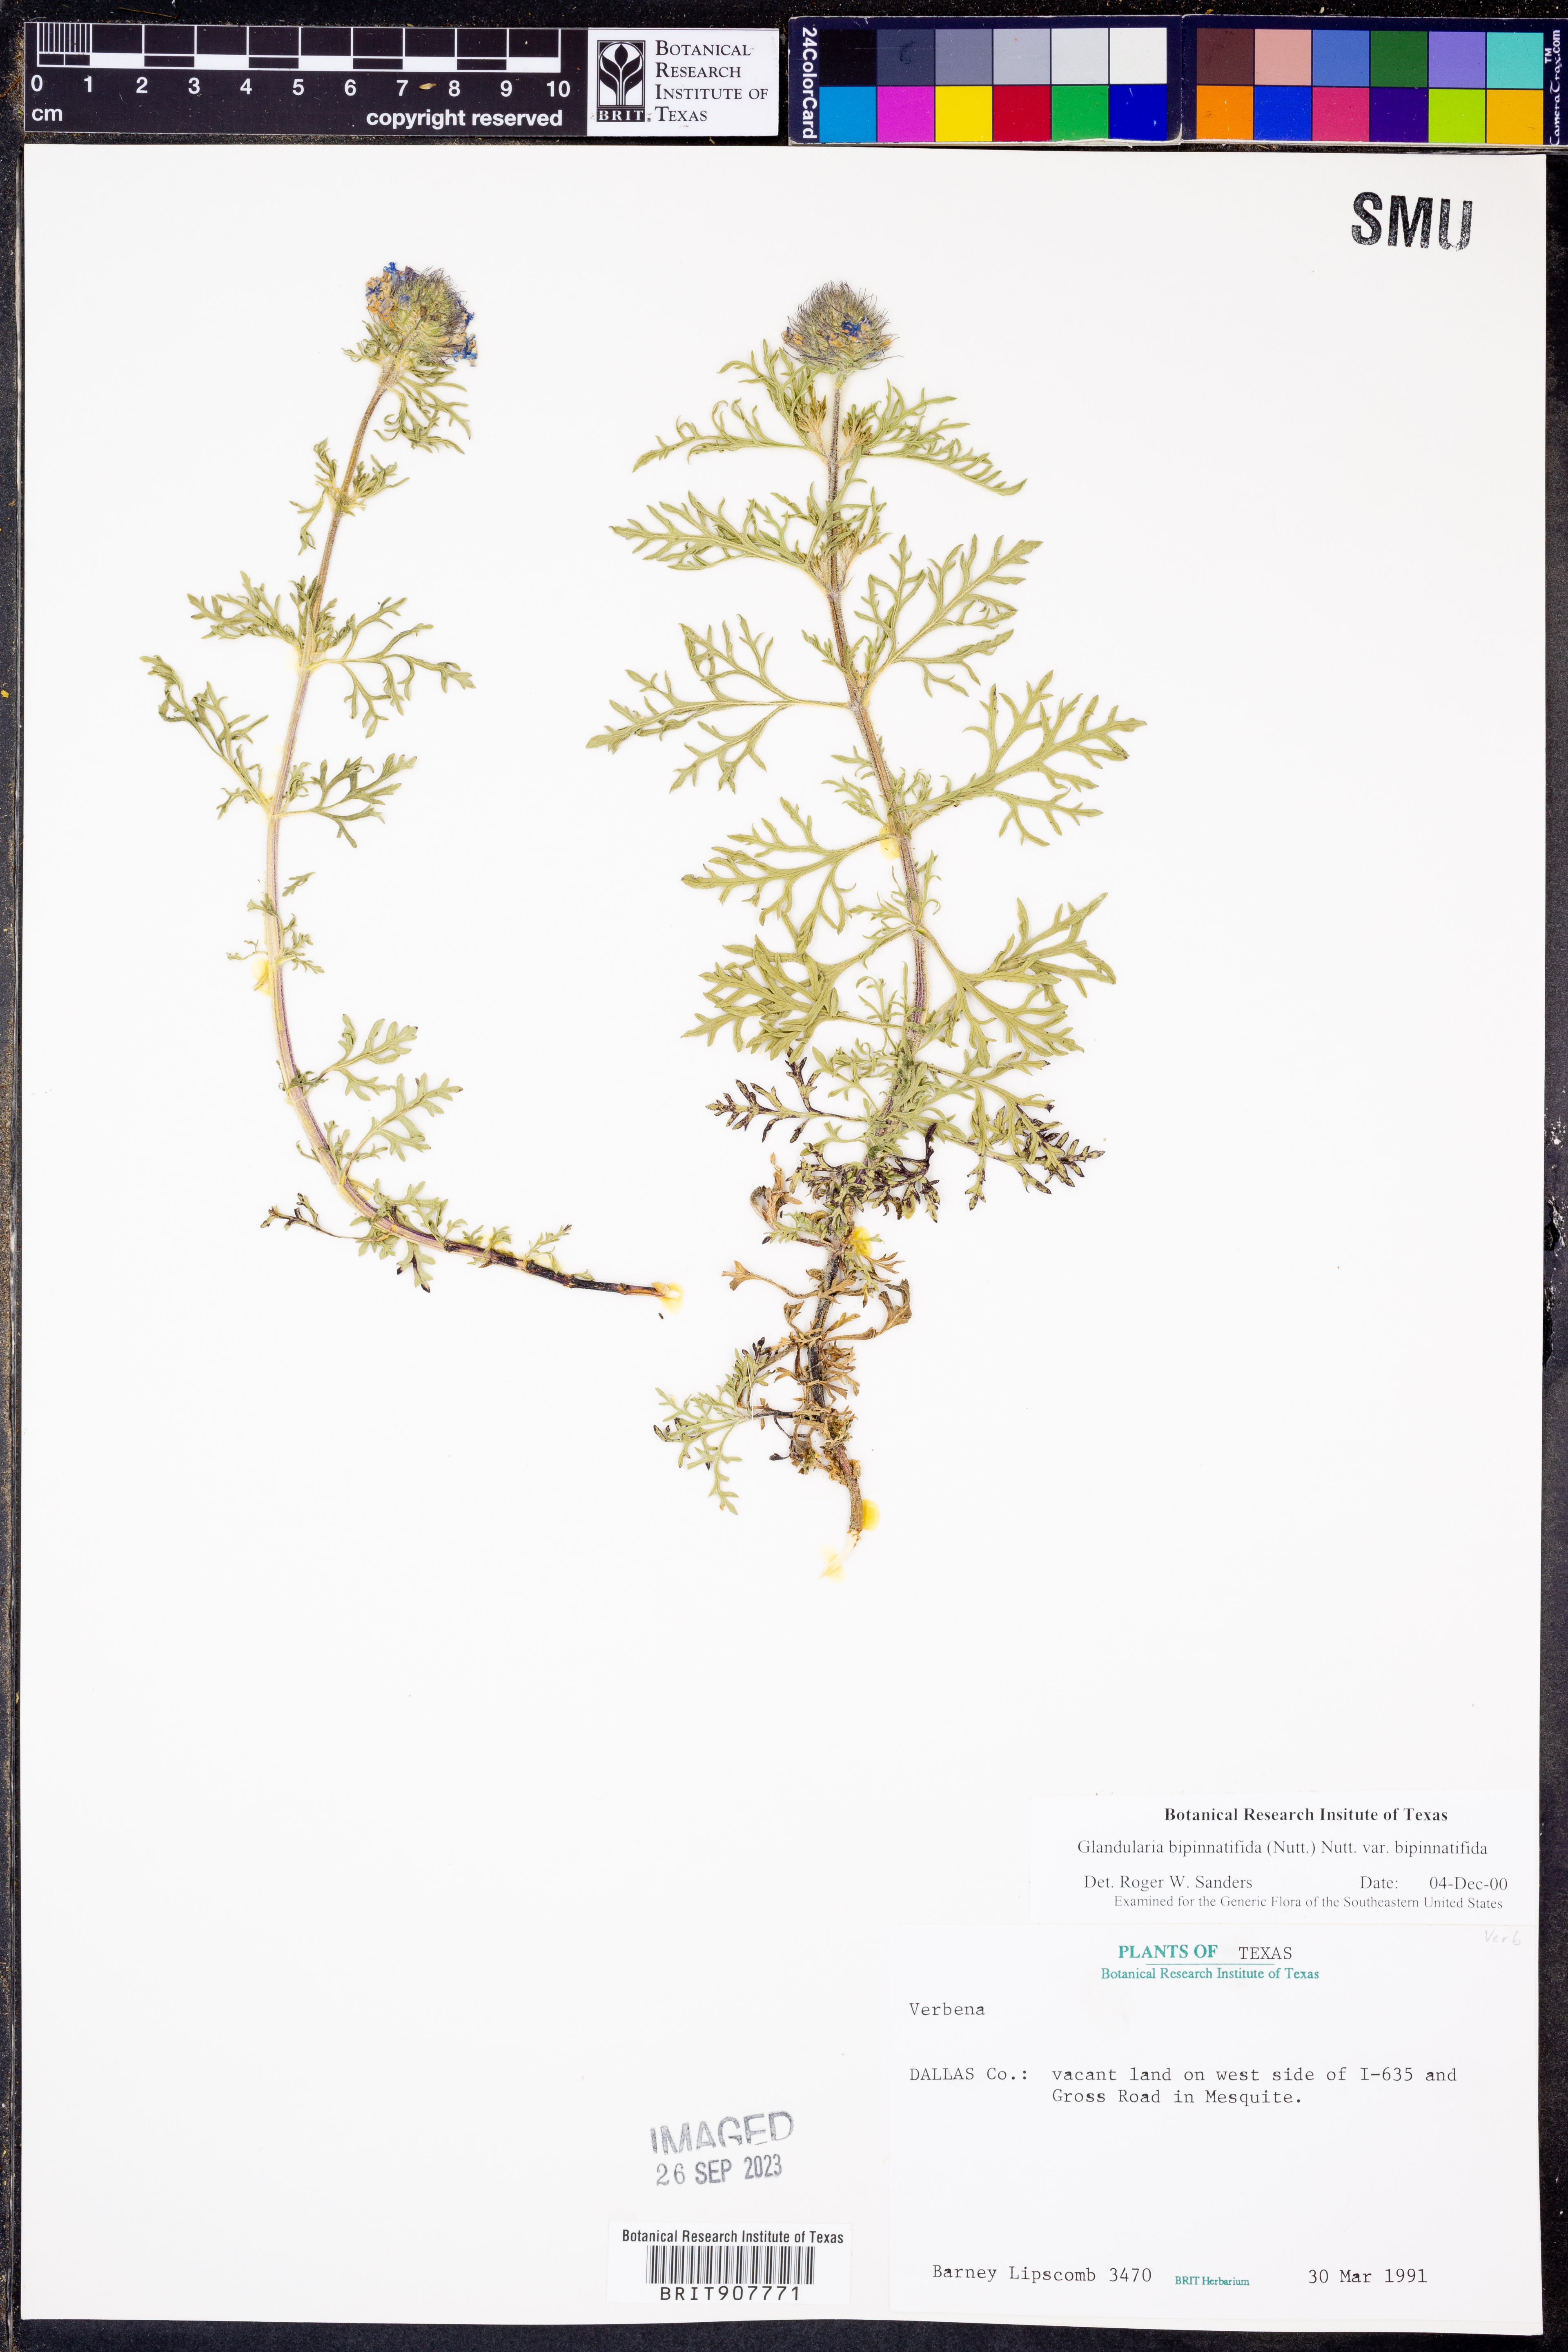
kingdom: Plantae
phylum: Tracheophyta
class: Magnoliopsida
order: Lamiales
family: Verbenaceae
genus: Verbena
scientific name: Verbena bipinnatifida
